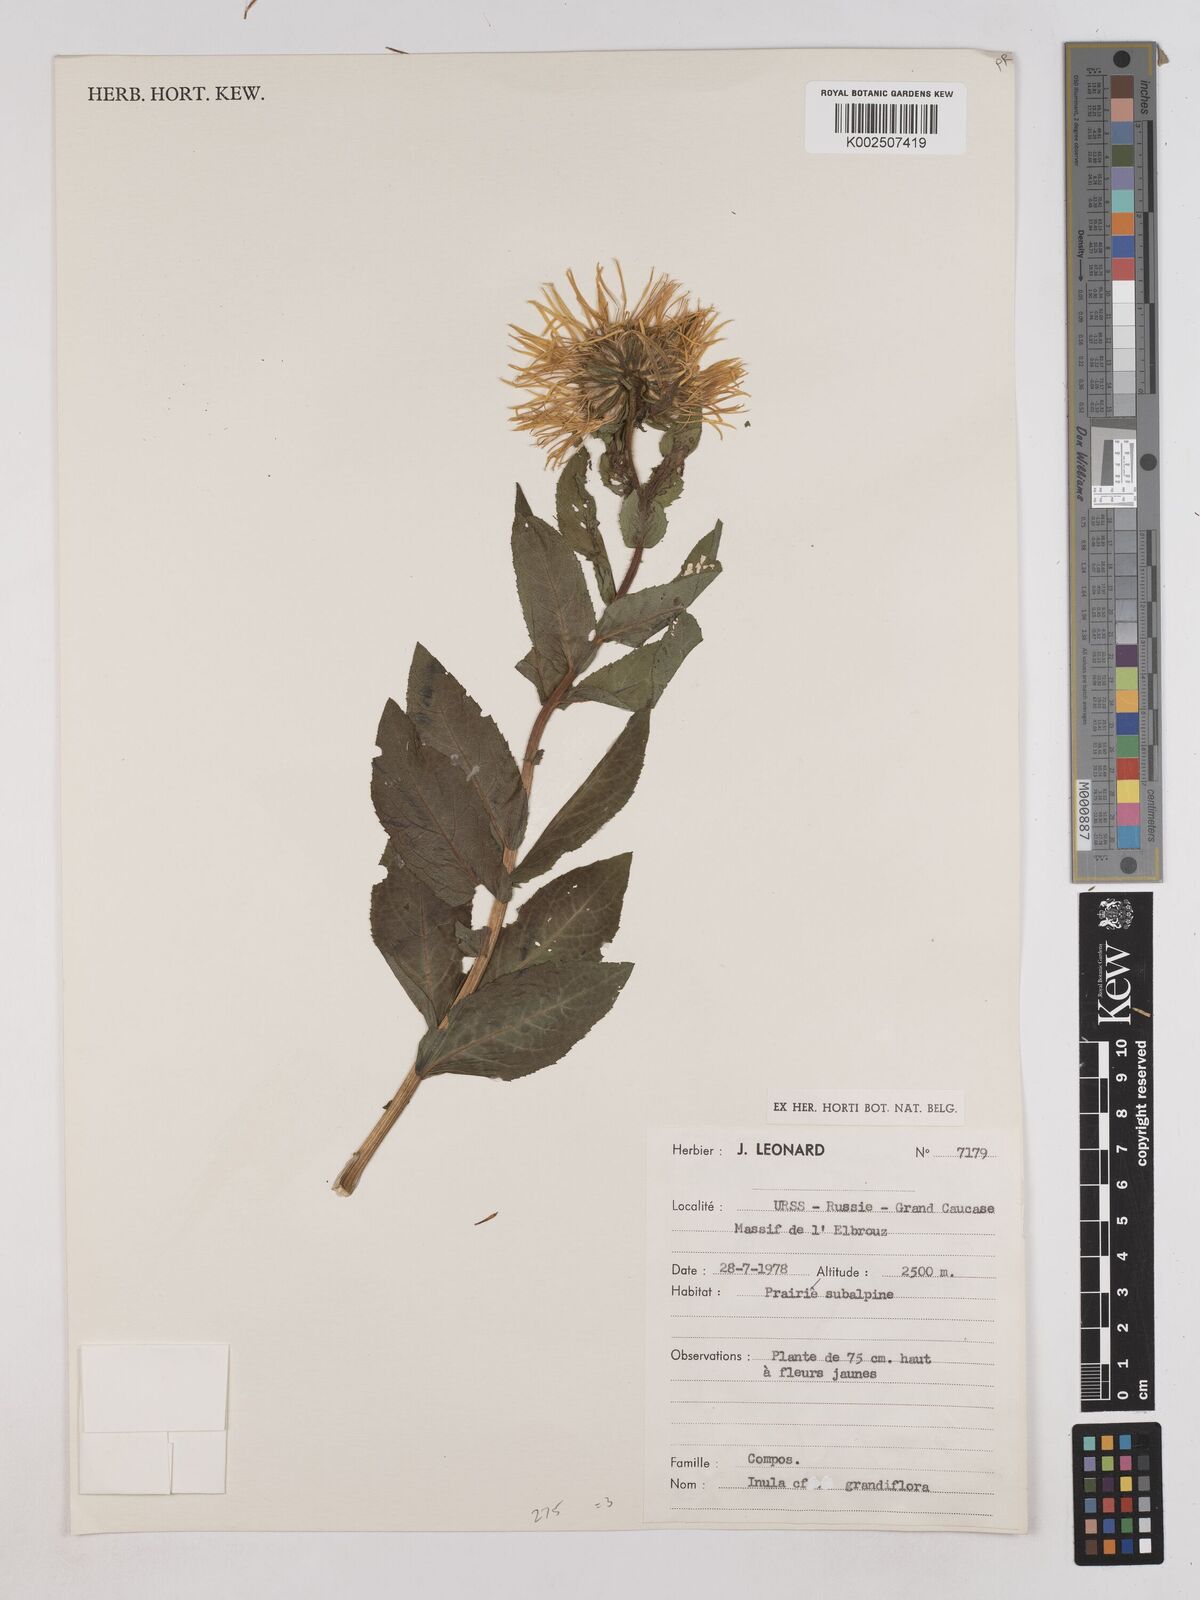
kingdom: Plantae
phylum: Tracheophyta
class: Magnoliopsida
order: Asterales
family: Asteraceae
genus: Inula
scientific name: Inula
